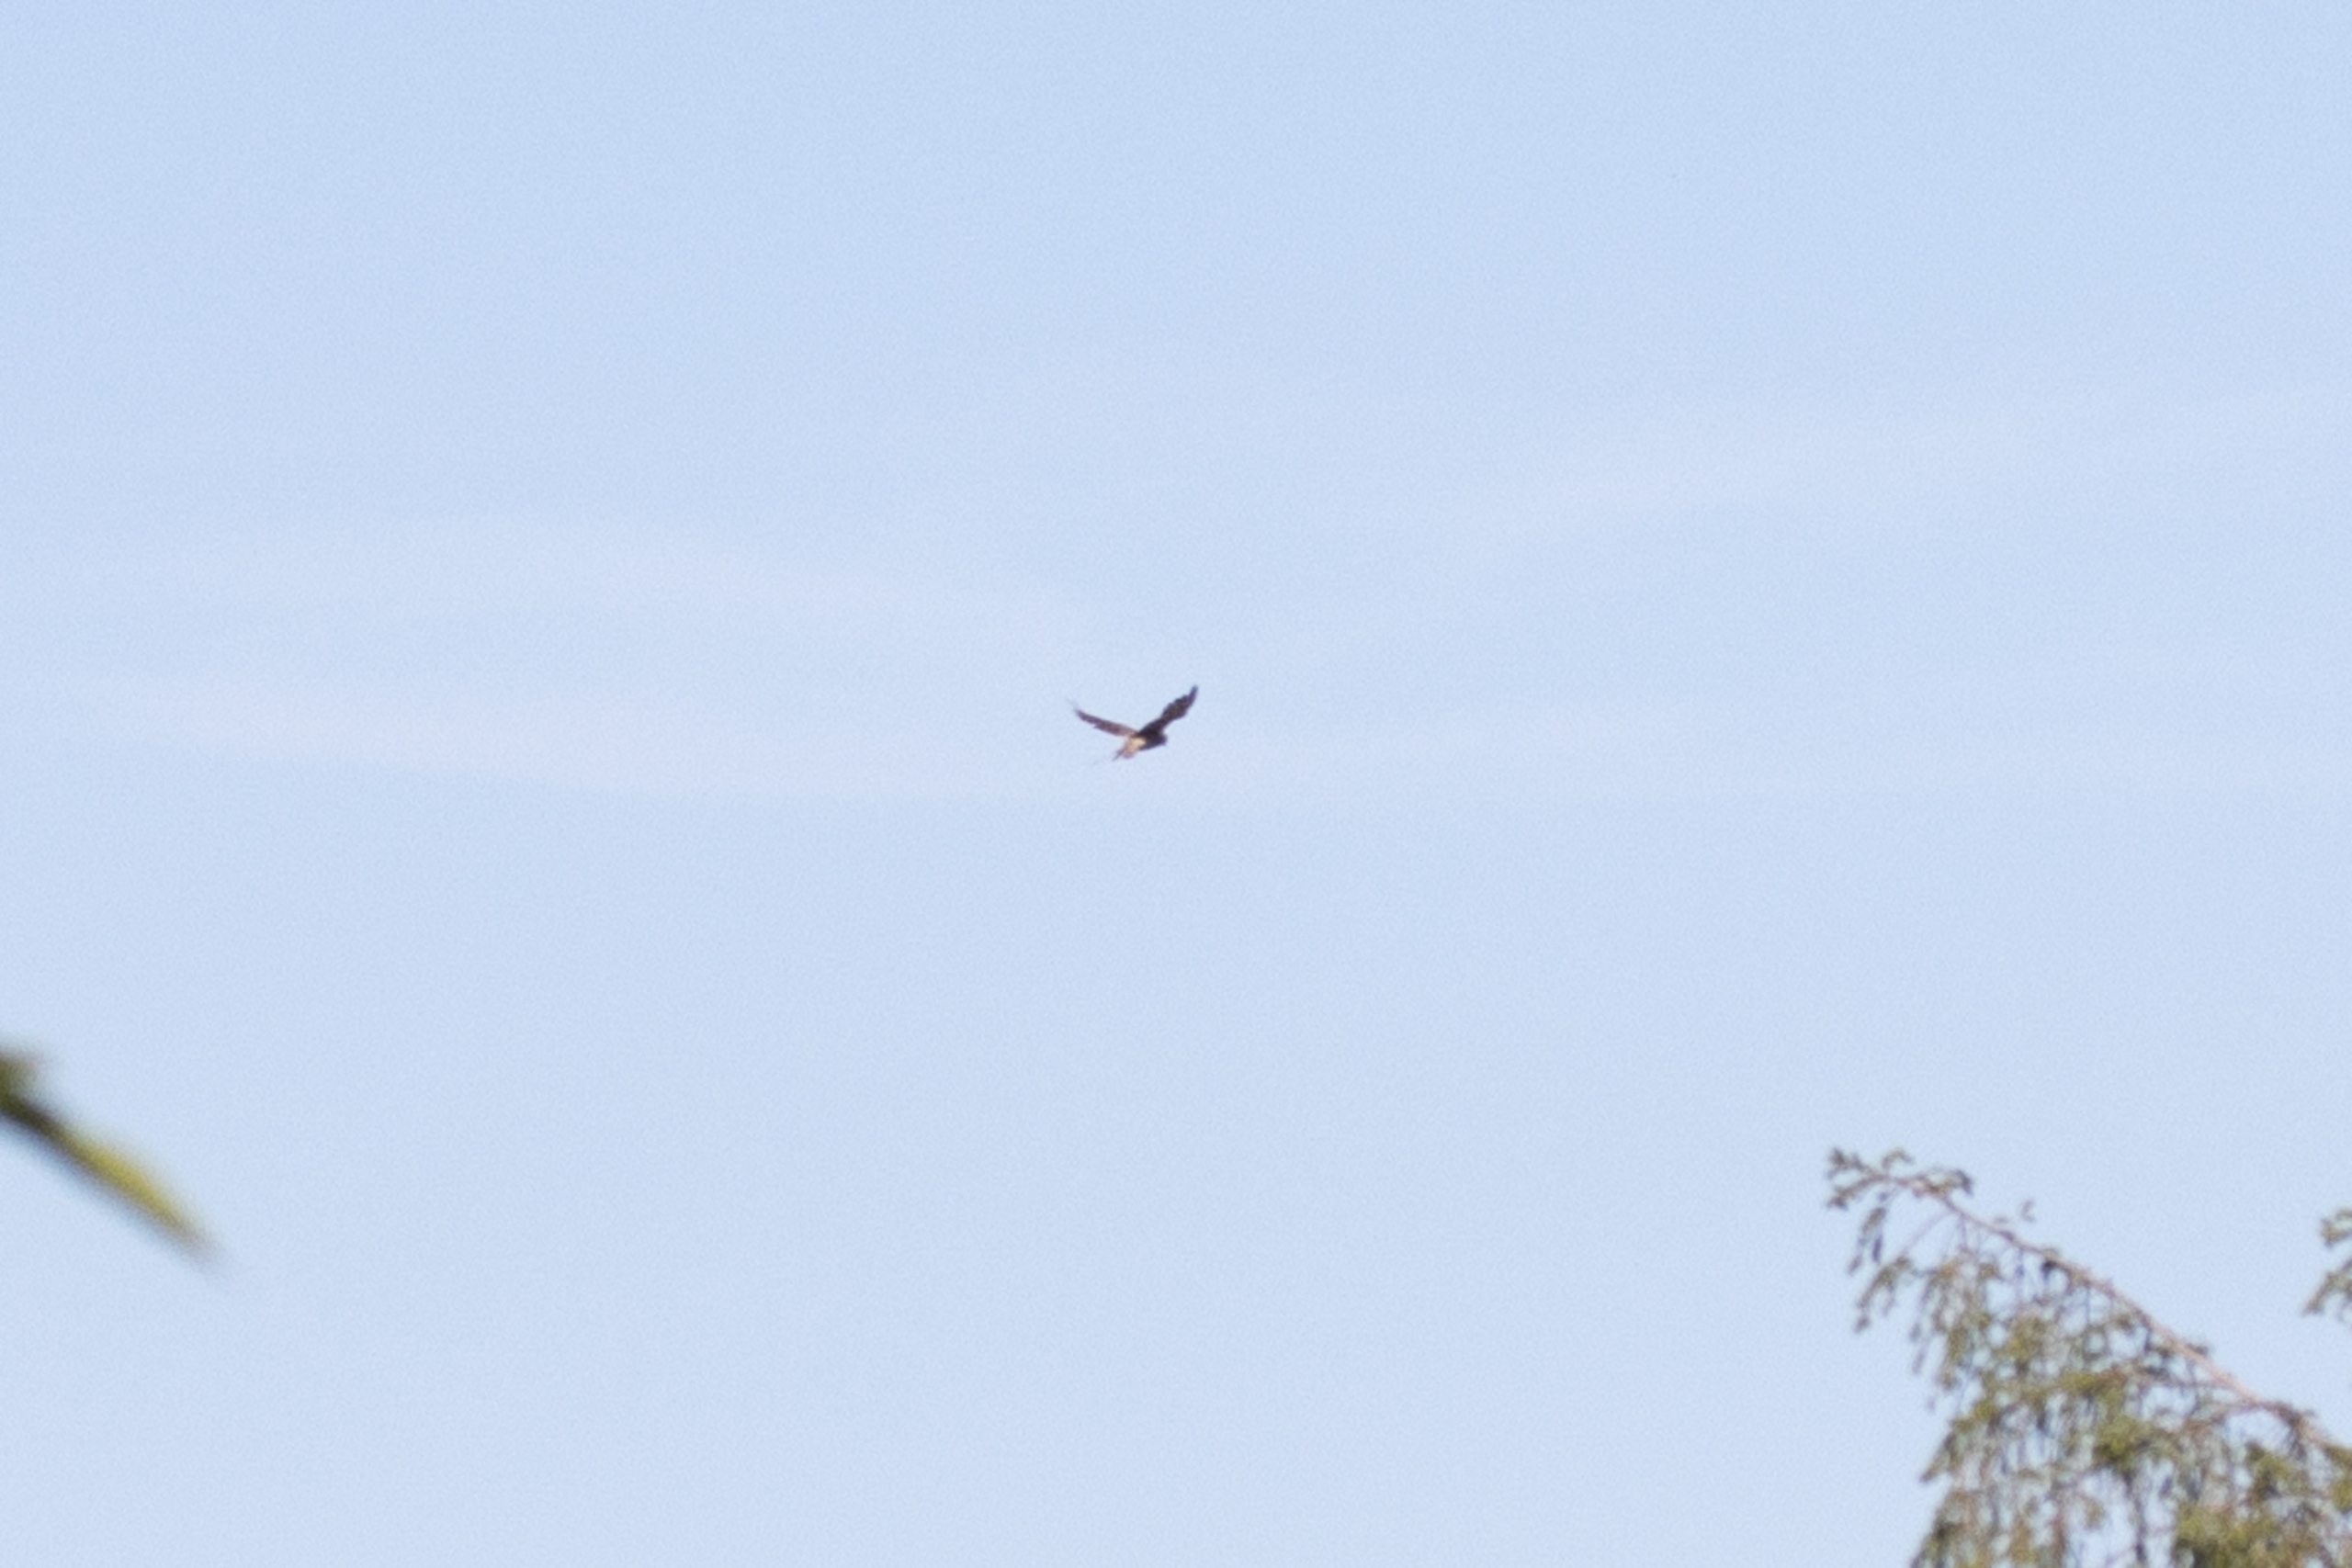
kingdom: Animalia
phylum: Chordata
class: Aves
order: Falconiformes
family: Falconidae
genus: Falco
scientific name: Falco tinnunculus
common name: Tårnfalk
